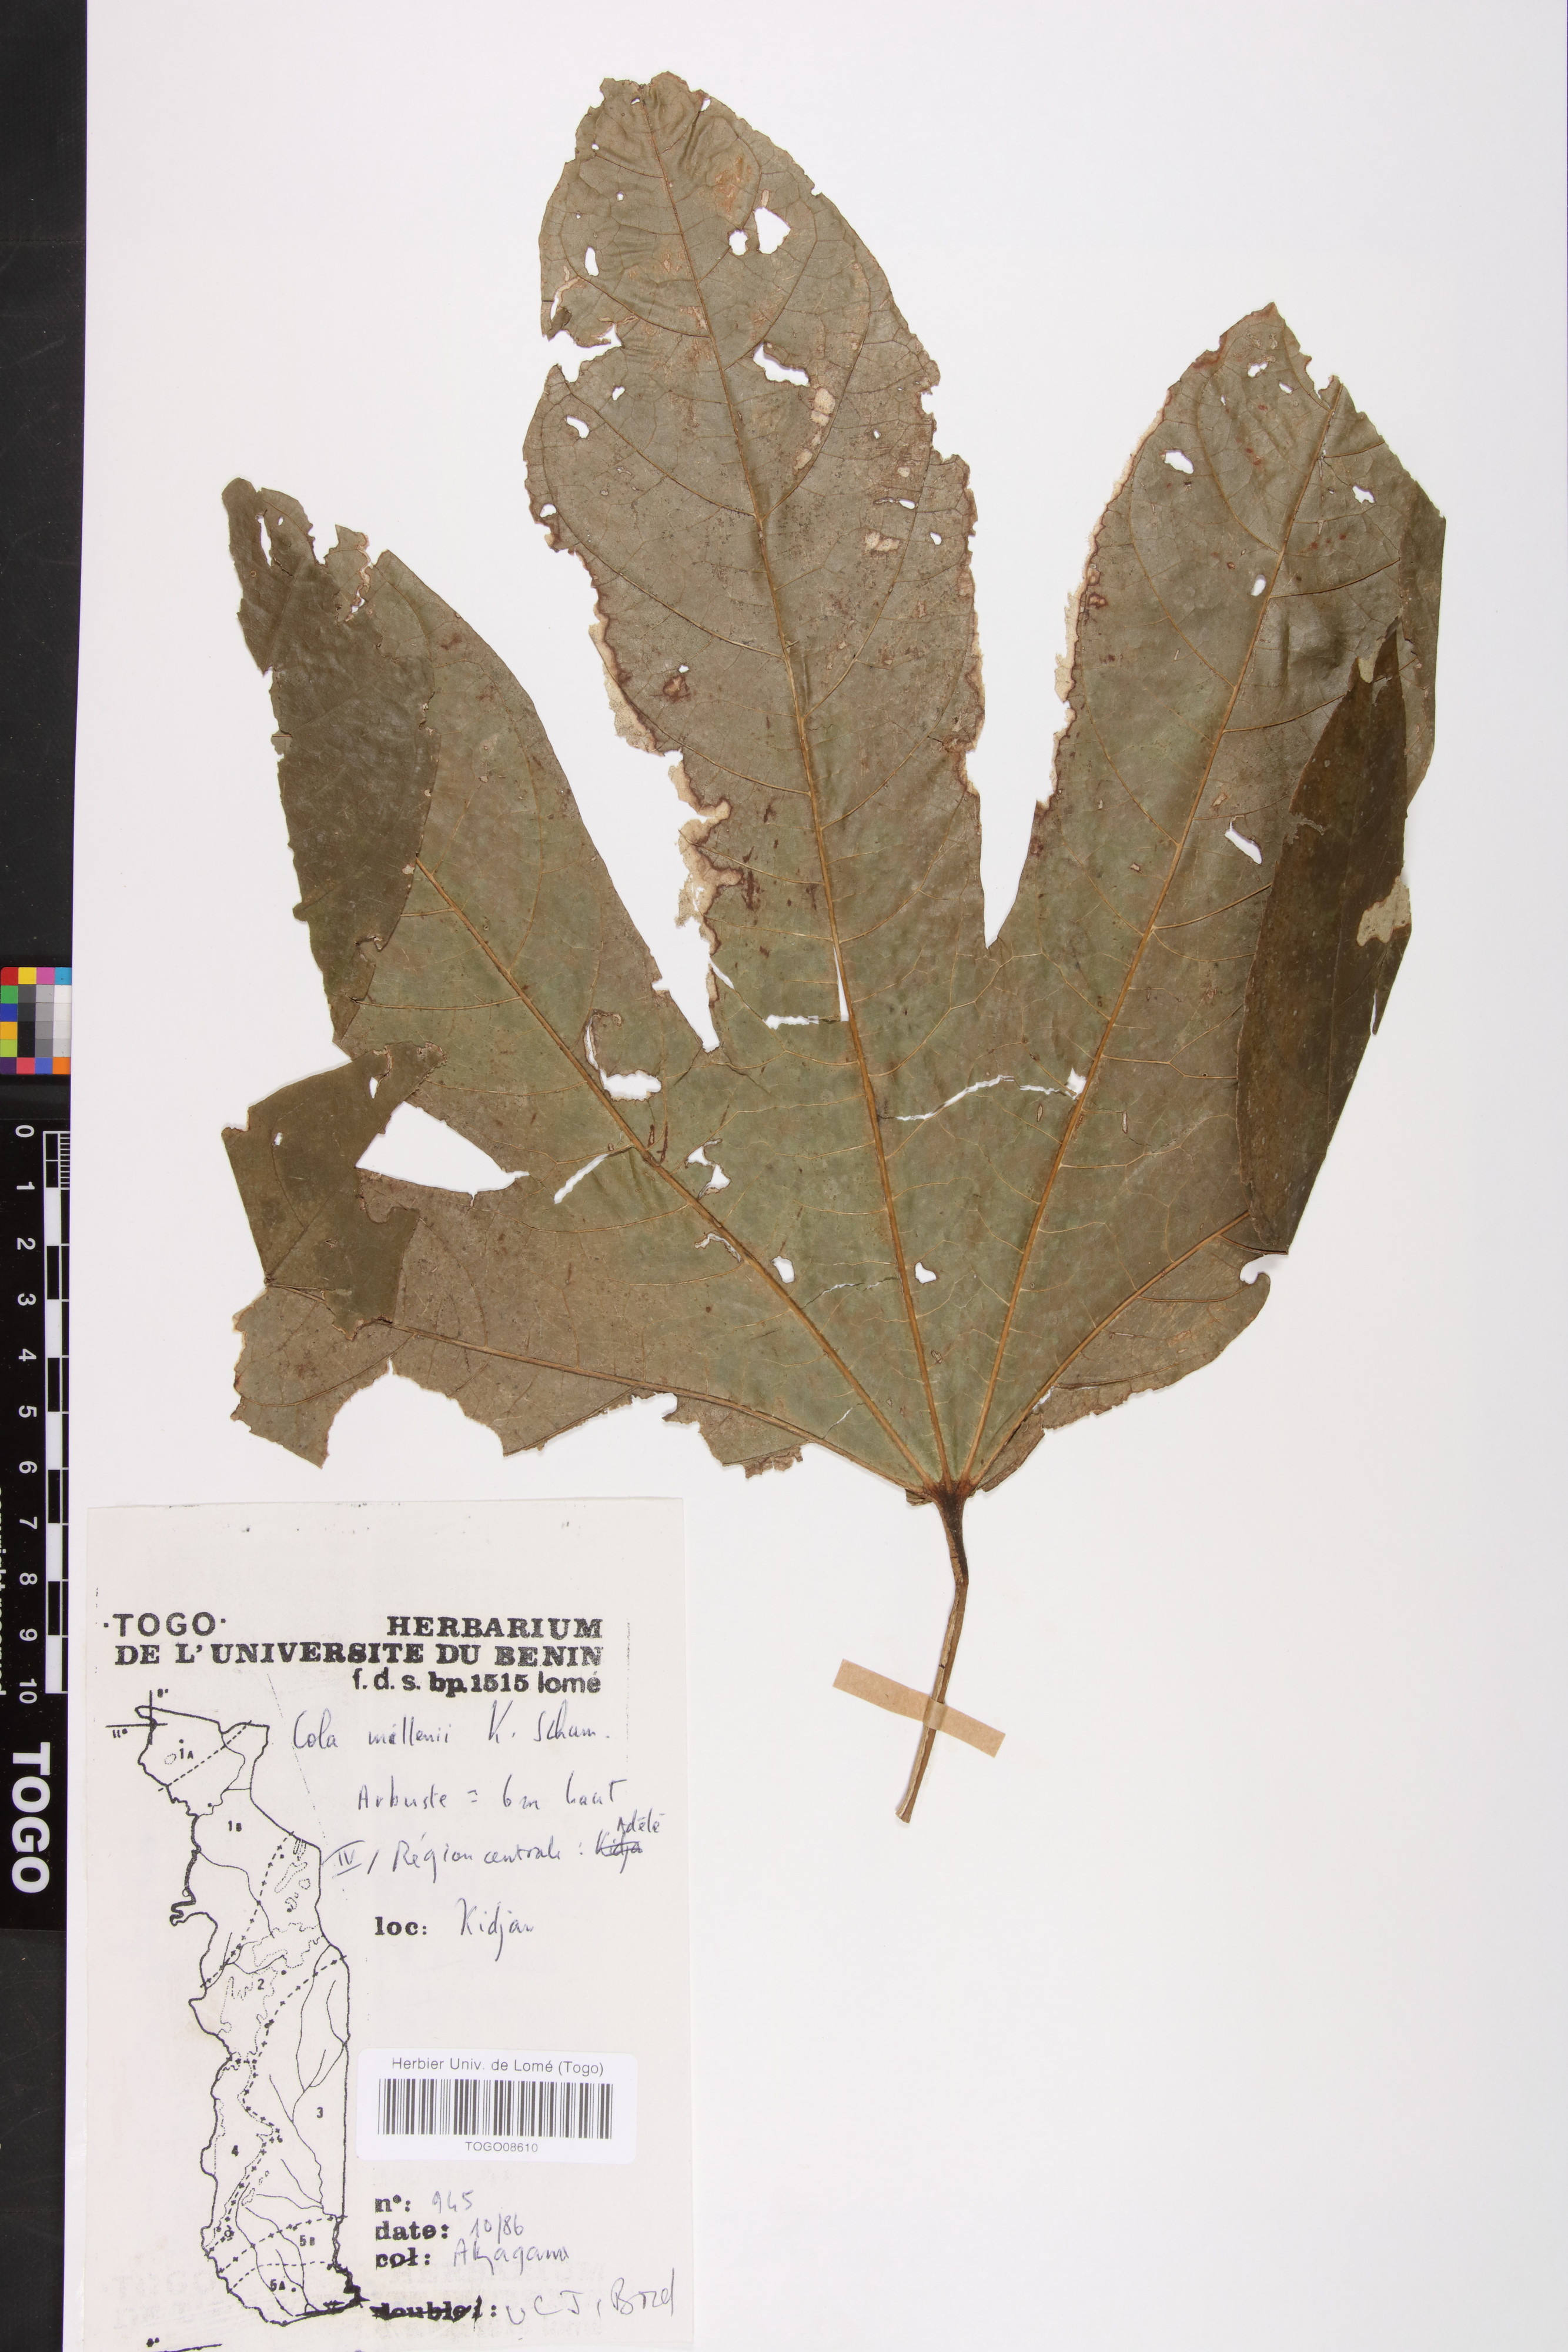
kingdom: Plantae
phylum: Tracheophyta
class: Magnoliopsida
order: Malvales
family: Malvaceae
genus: Cola
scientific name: Cola millenii
